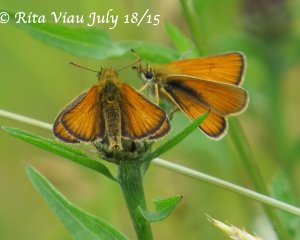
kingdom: Animalia
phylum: Arthropoda
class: Insecta
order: Lepidoptera
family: Hesperiidae
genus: Thymelicus
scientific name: Thymelicus lineola
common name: European Skipper
